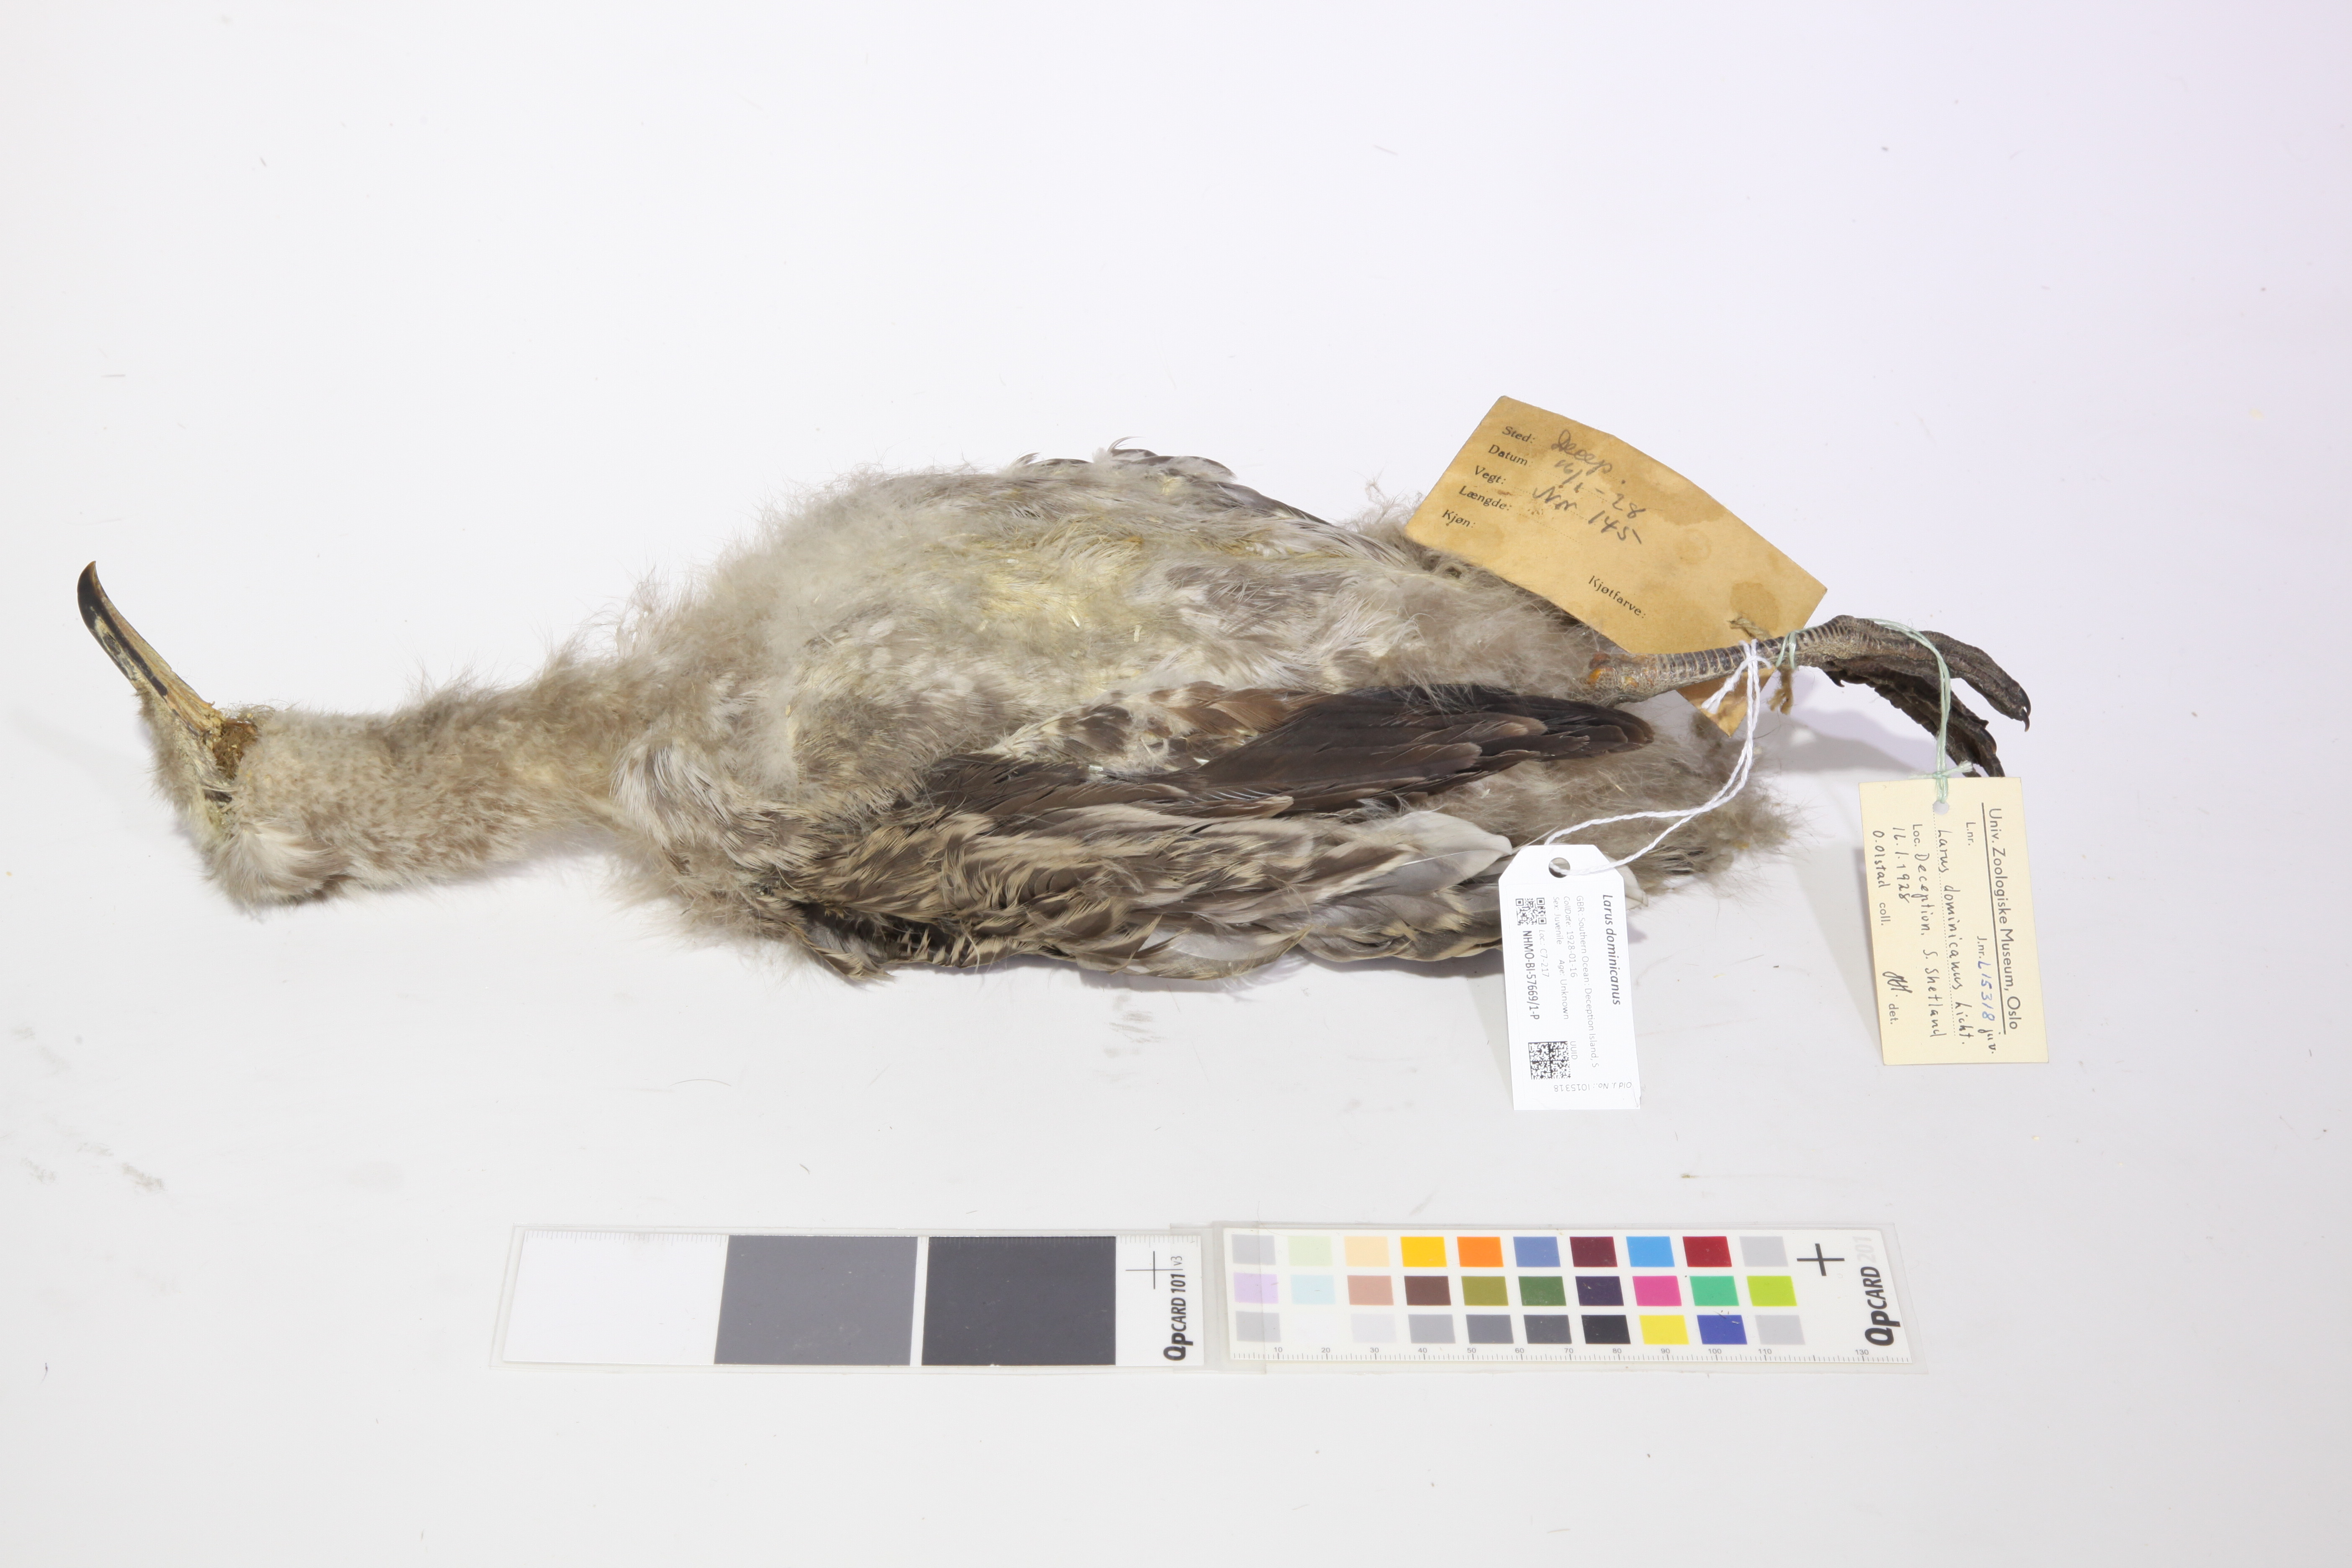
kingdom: Animalia
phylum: Chordata
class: Aves
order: Charadriiformes
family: Laridae
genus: Larus
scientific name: Larus dominicanus
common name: Kelp gull
